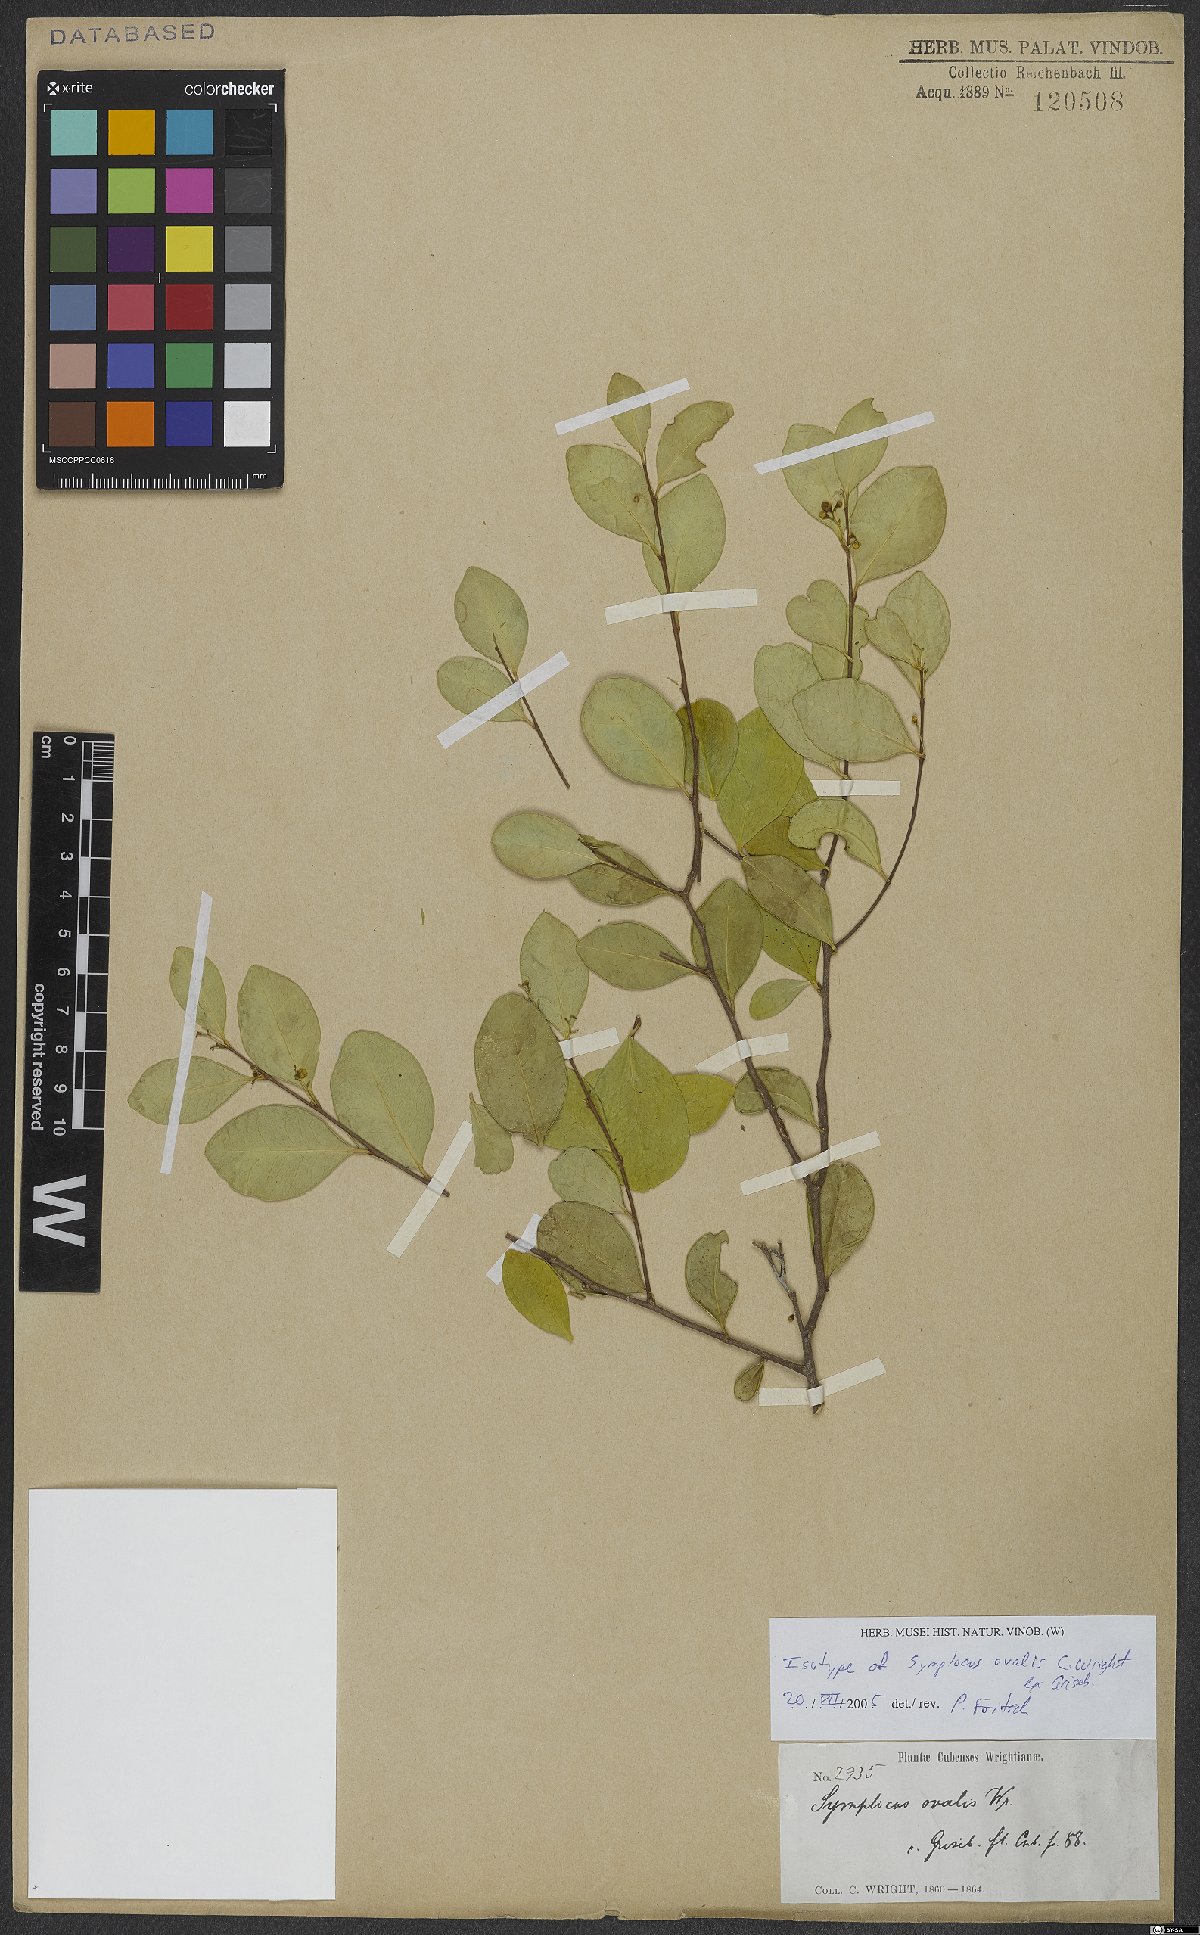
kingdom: Plantae
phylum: Tracheophyta
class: Magnoliopsida
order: Ericales
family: Symplocaceae
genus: Symplocos
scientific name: Symplocos ovalis
